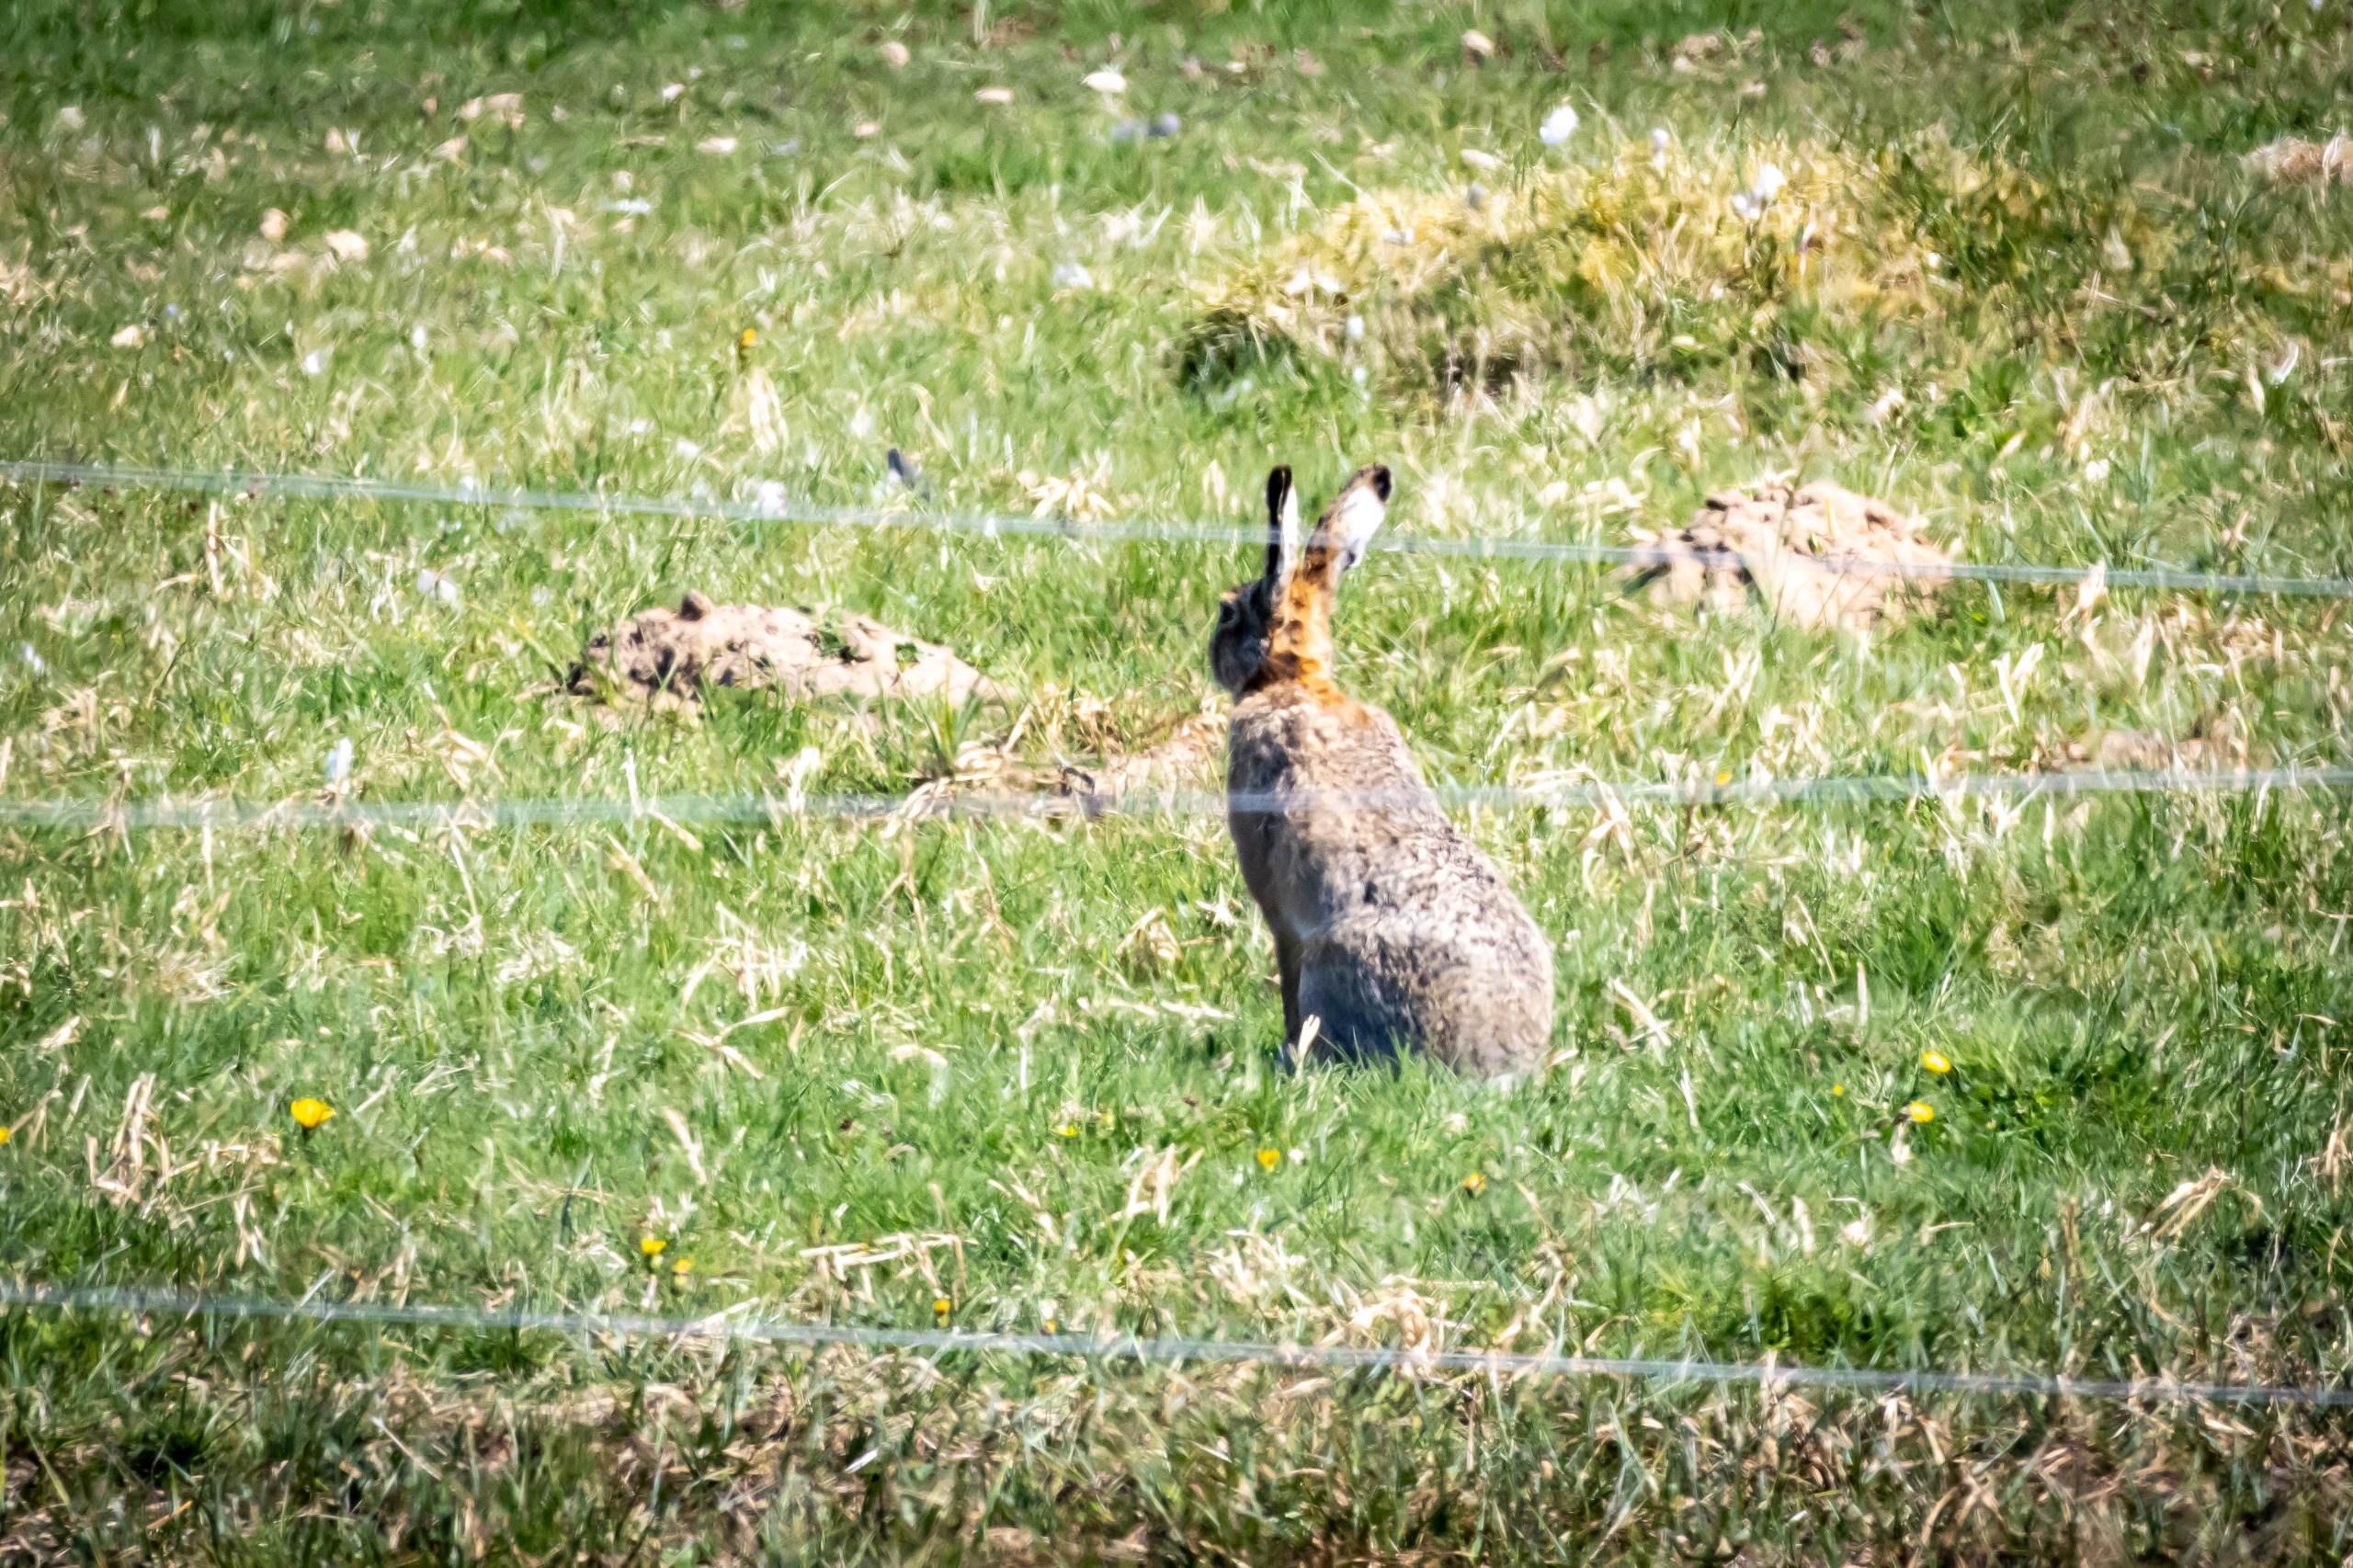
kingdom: Animalia
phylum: Chordata
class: Mammalia
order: Lagomorpha
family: Leporidae
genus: Lepus
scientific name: Lepus europaeus
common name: Hare
